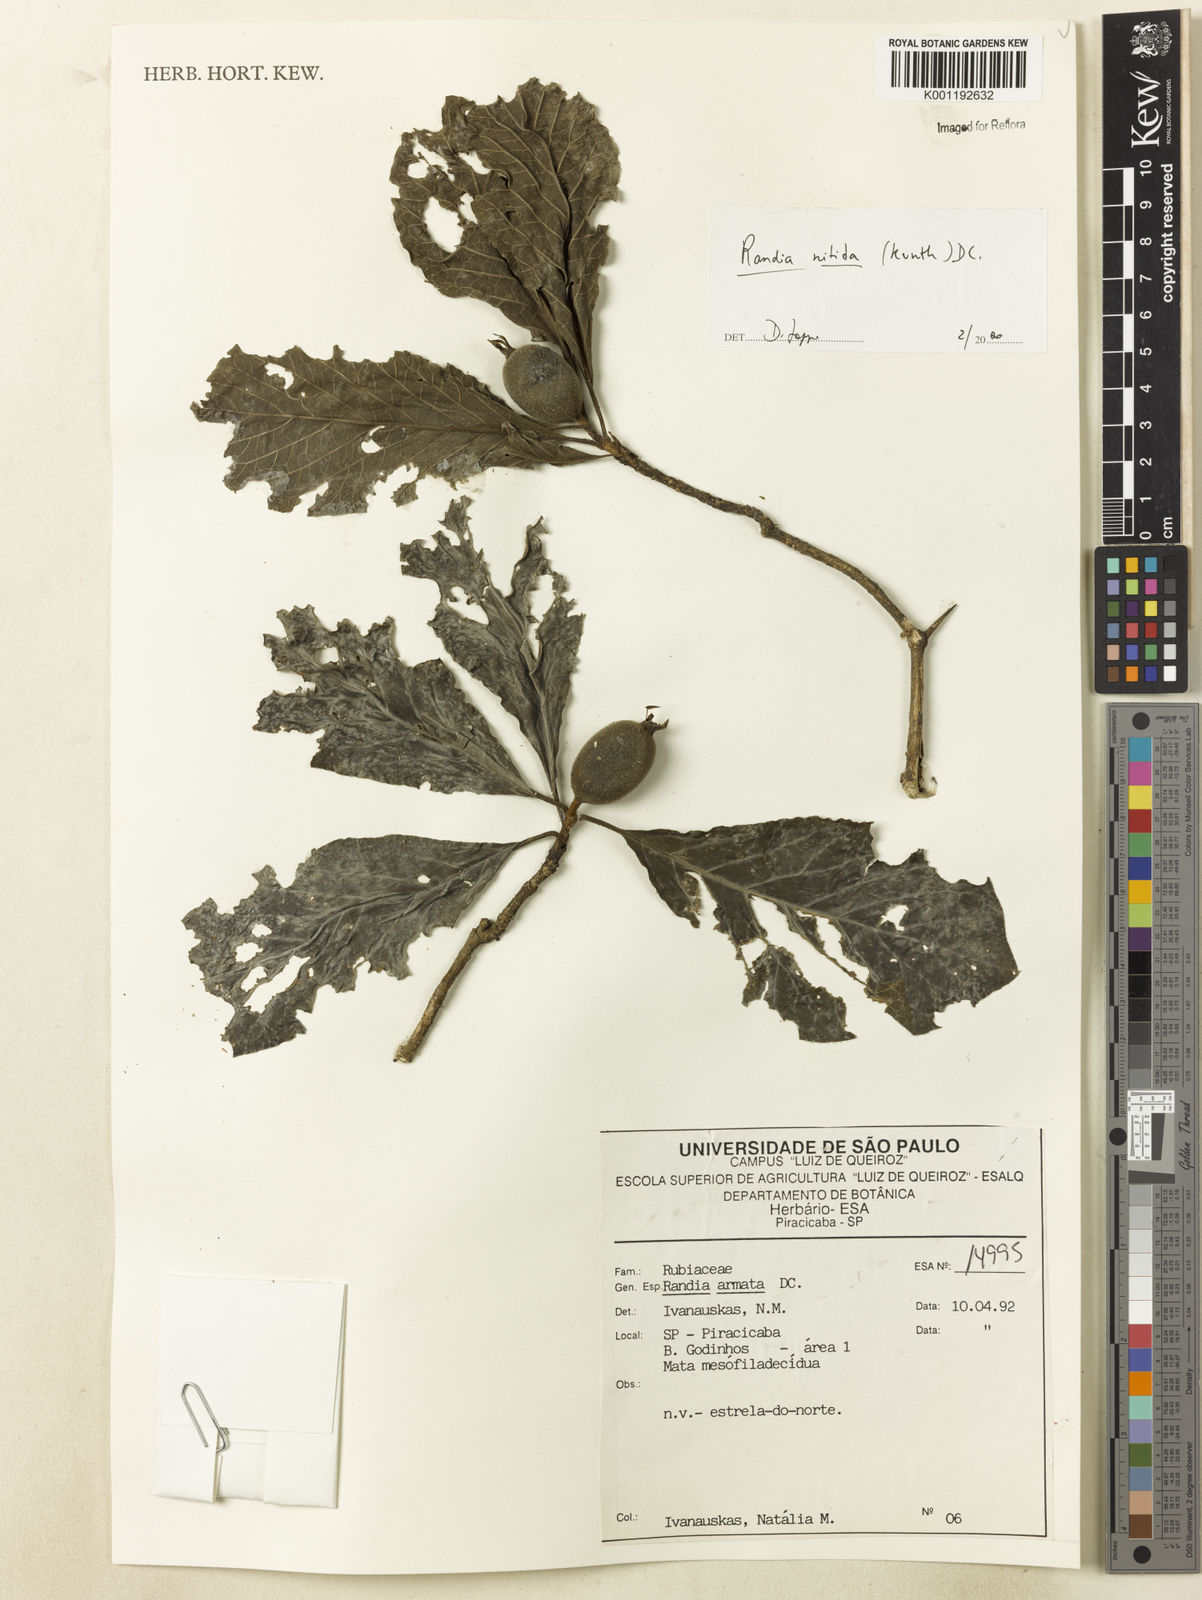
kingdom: Plantae
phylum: Tracheophyta
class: Magnoliopsida
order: Gentianales
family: Rubiaceae
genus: Randia
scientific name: Randia armata
